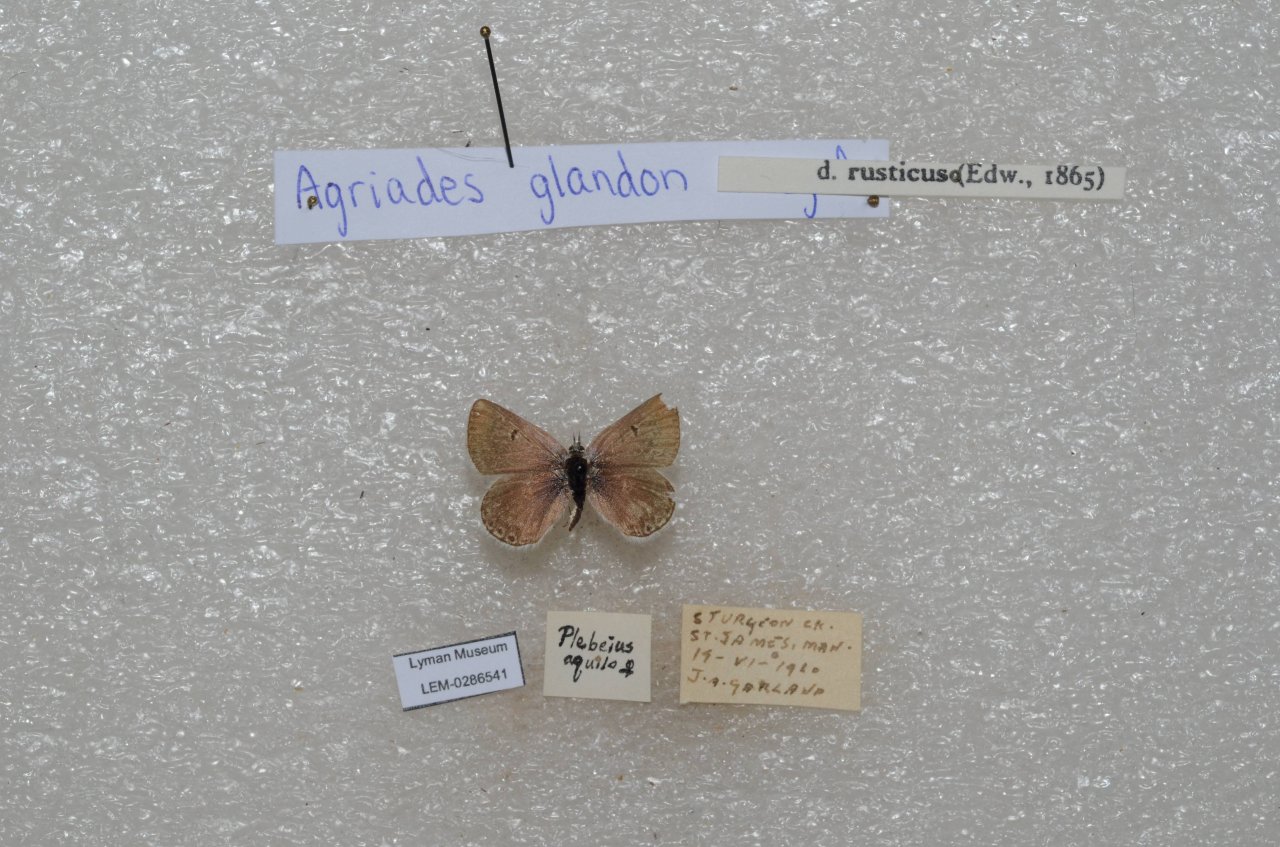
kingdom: Animalia
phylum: Arthropoda
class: Insecta
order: Lepidoptera
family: Lycaenidae
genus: Agriades
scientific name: Agriades glandon
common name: Arctic Blue
